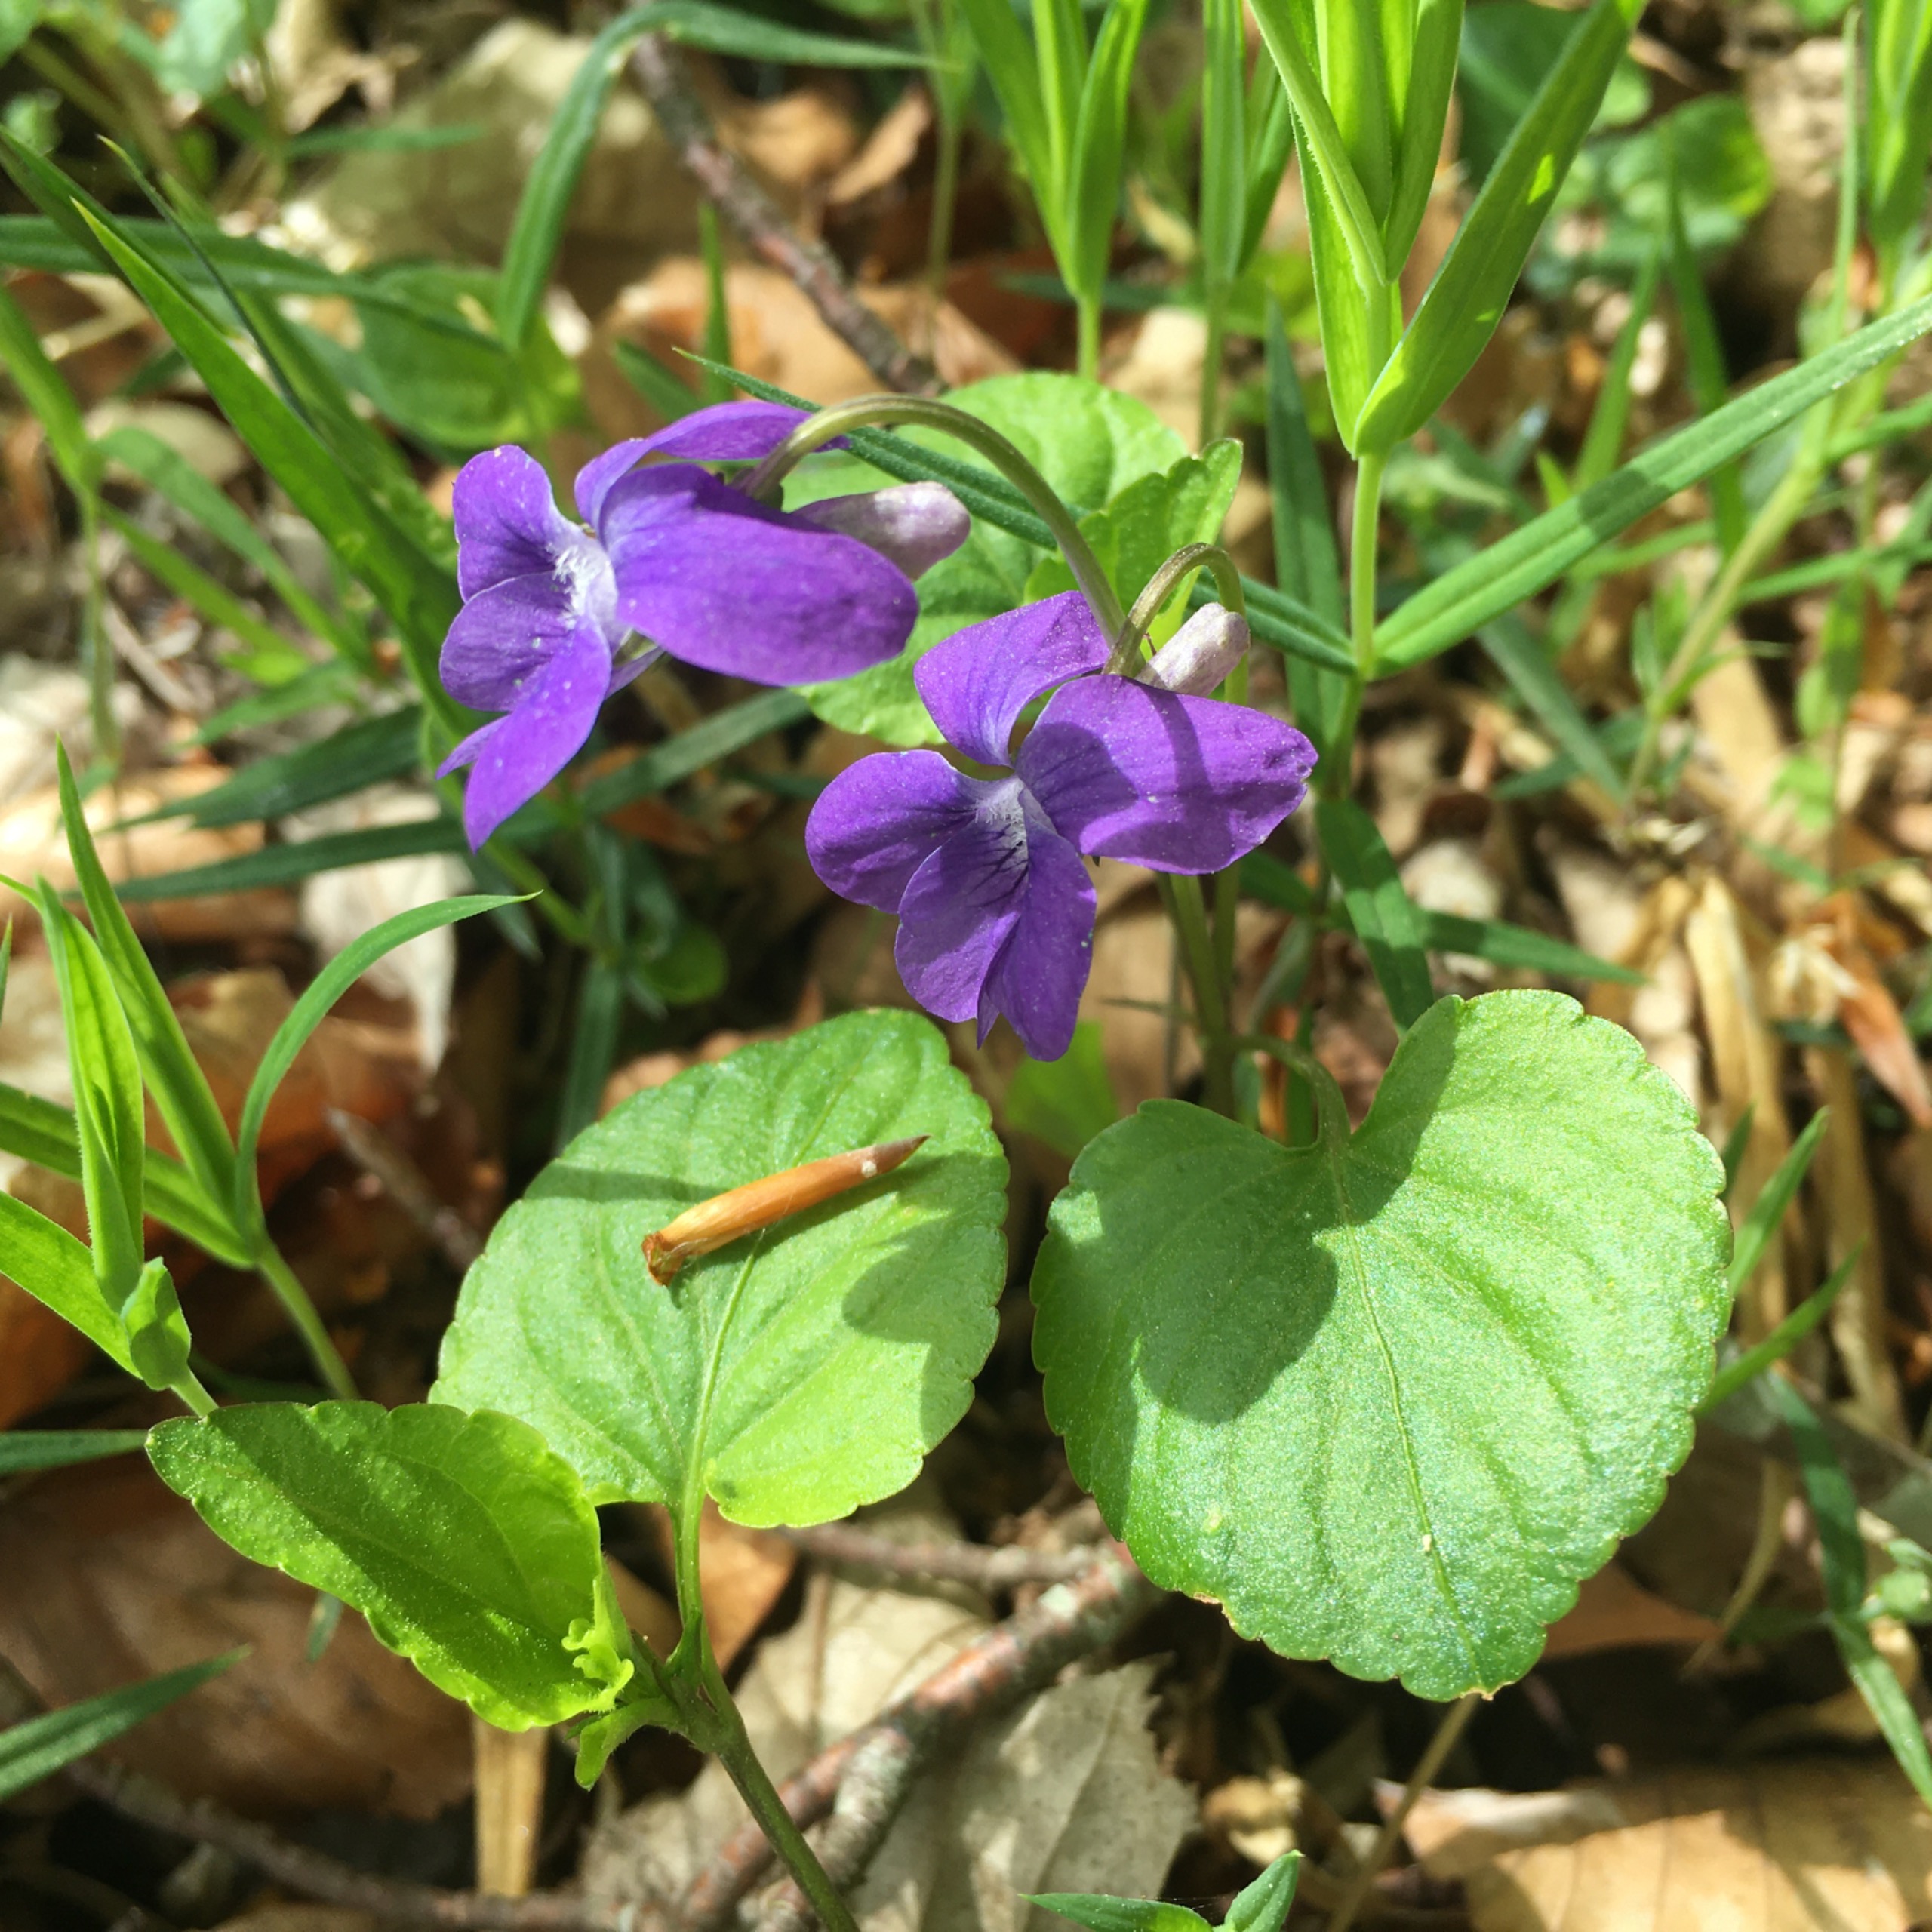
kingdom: Plantae
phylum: Tracheophyta
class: Magnoliopsida
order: Malpighiales
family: Violaceae
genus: Viola
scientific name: Viola riviniana
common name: Krat-viol
